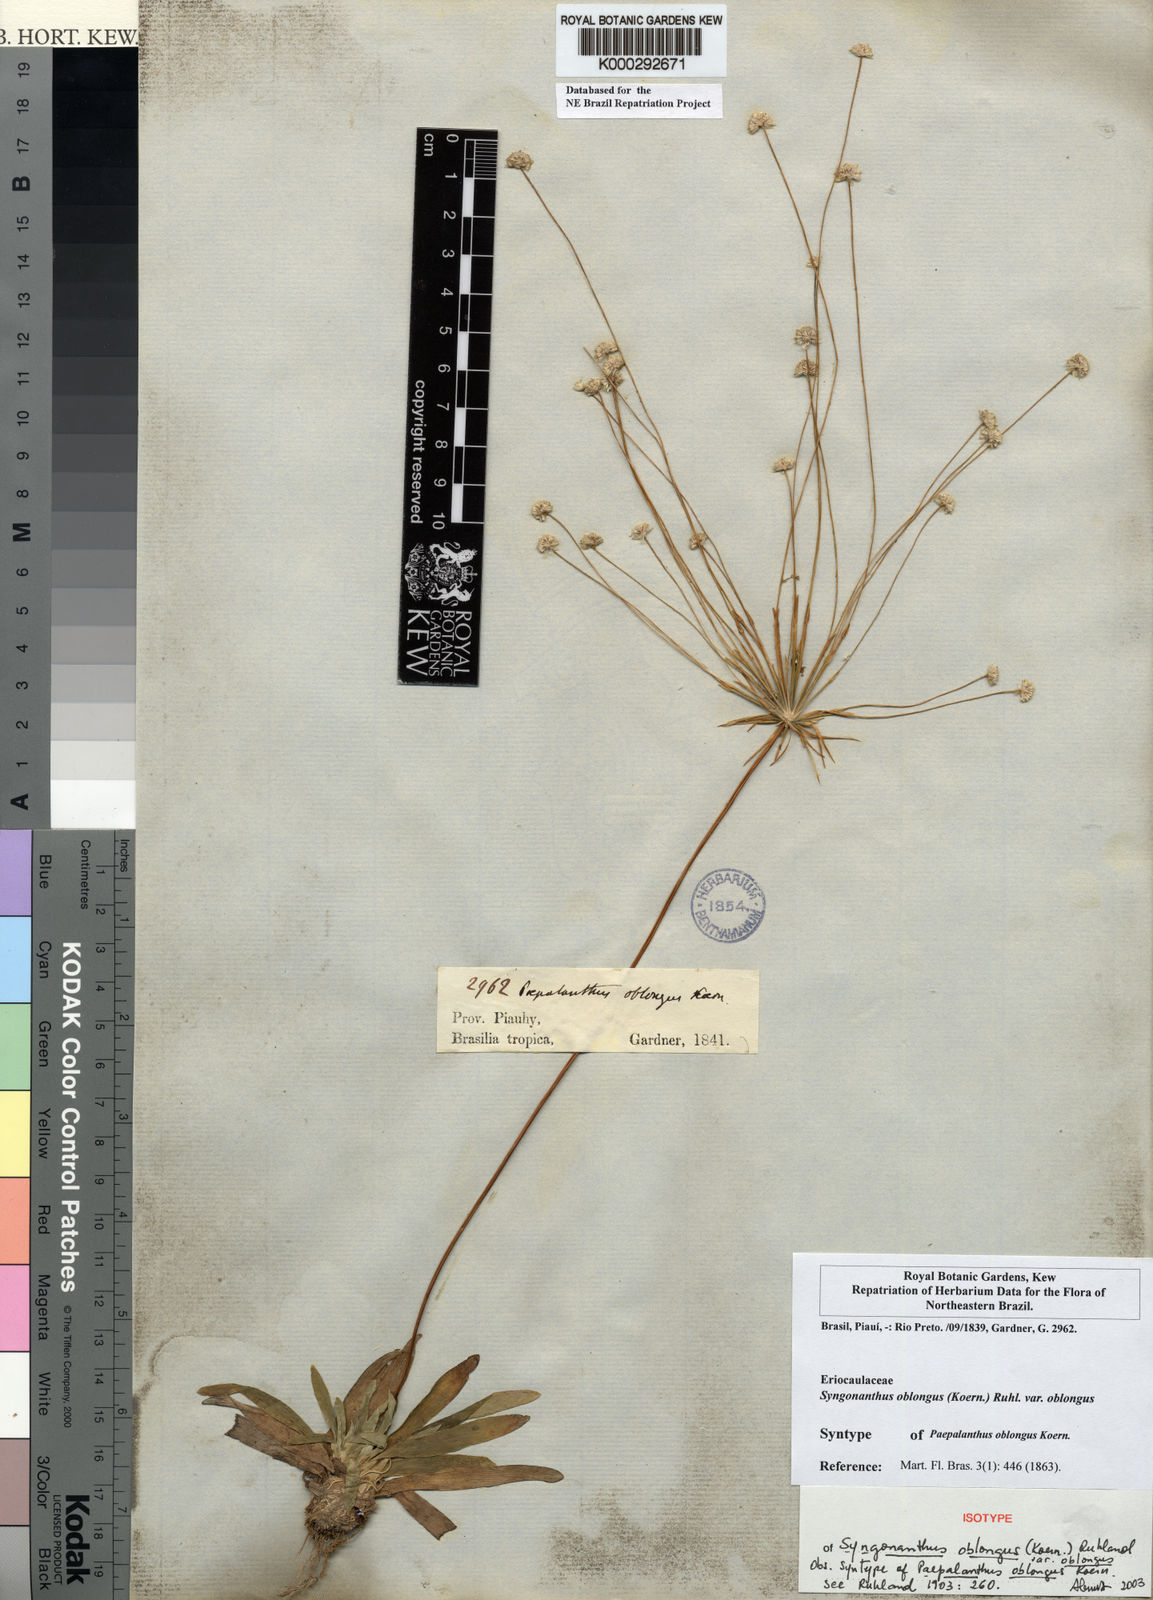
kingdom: Plantae
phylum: Tracheophyta
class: Liliopsida
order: Poales
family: Eriocaulaceae
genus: Syngonanthus
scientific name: Syngonanthus oblongus
